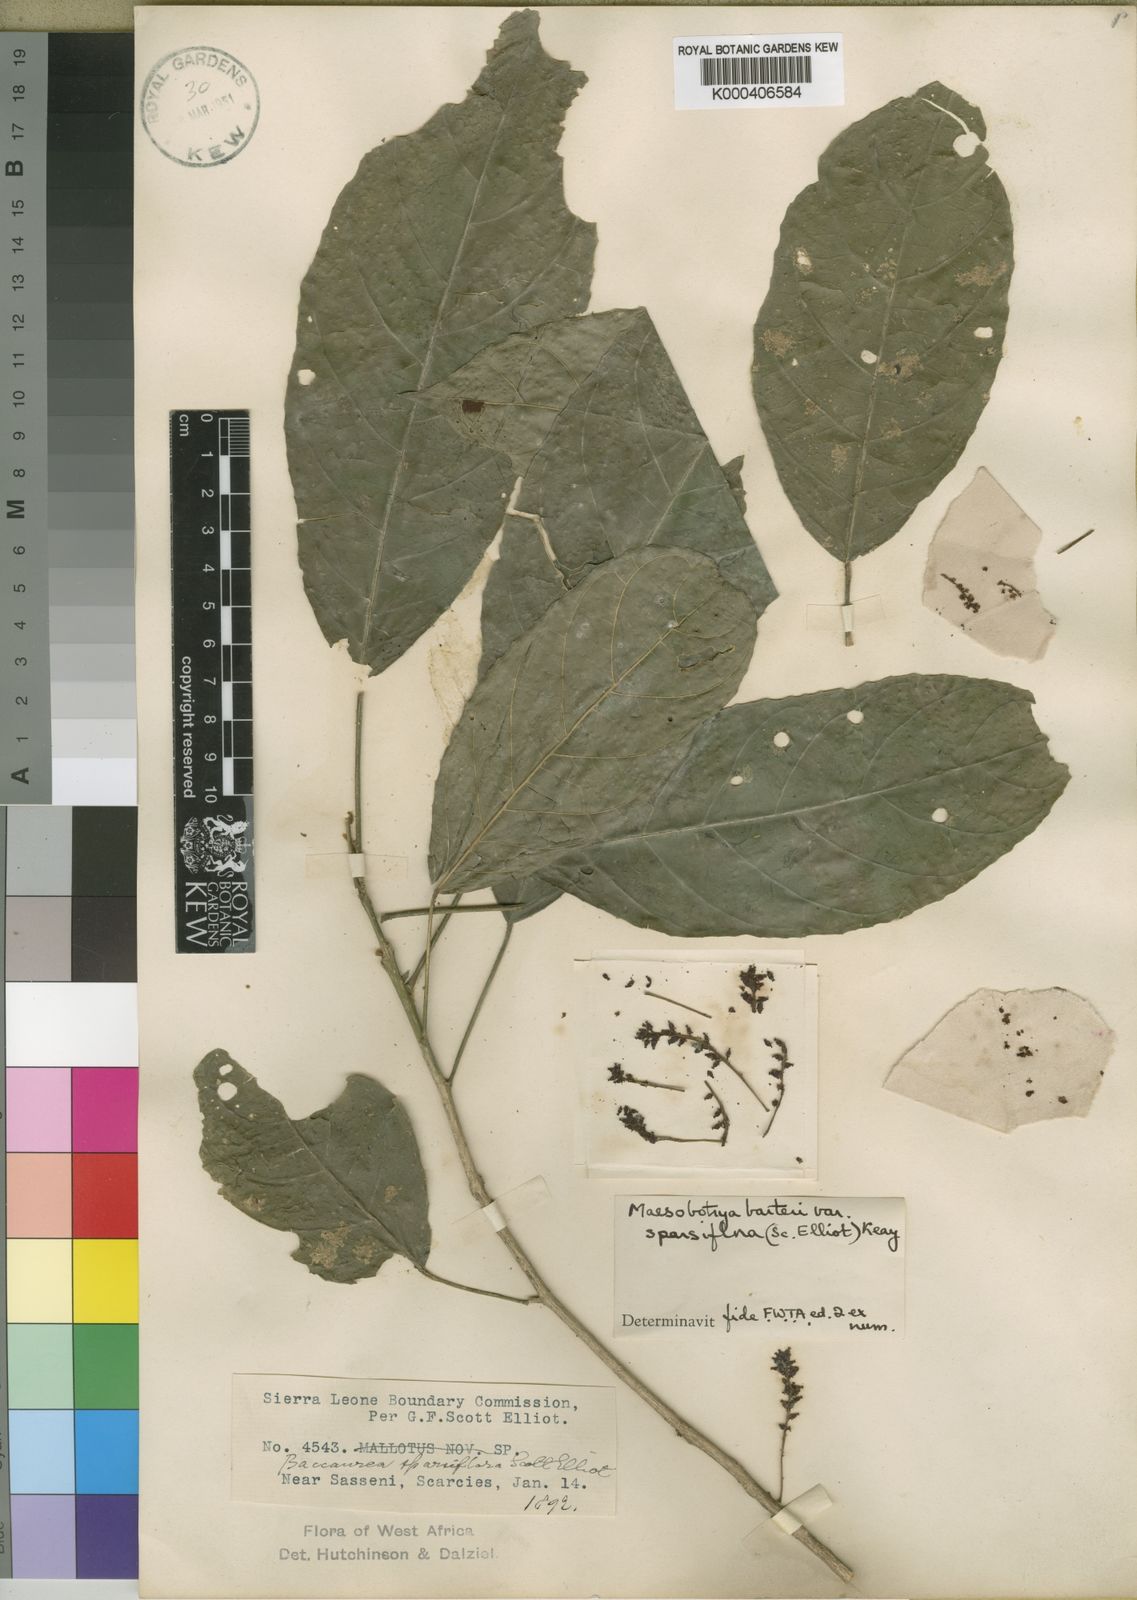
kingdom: Plantae
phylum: Tracheophyta
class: Magnoliopsida
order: Malpighiales
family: Phyllanthaceae
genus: Maesobotrya
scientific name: Maesobotrya barteri
